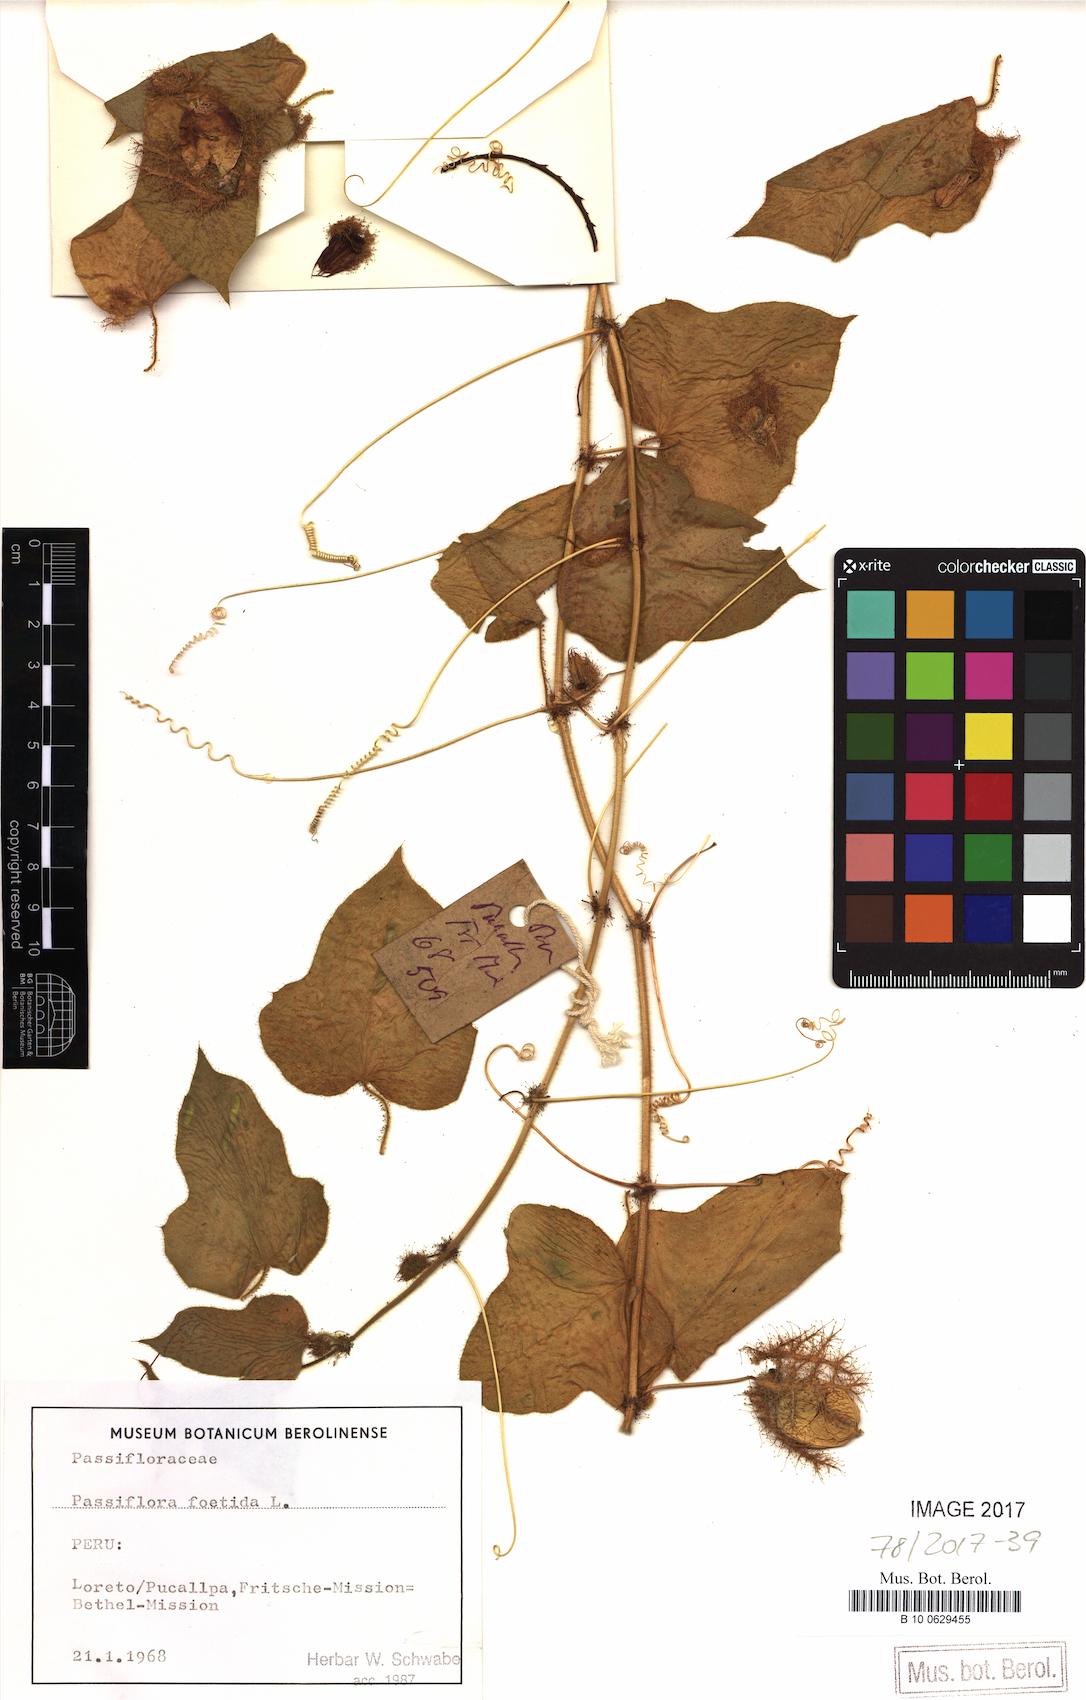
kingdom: Plantae
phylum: Tracheophyta
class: Magnoliopsida
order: Malpighiales
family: Passifloraceae
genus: Passiflora
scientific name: Passiflora foetida
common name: Fetid passionflower
